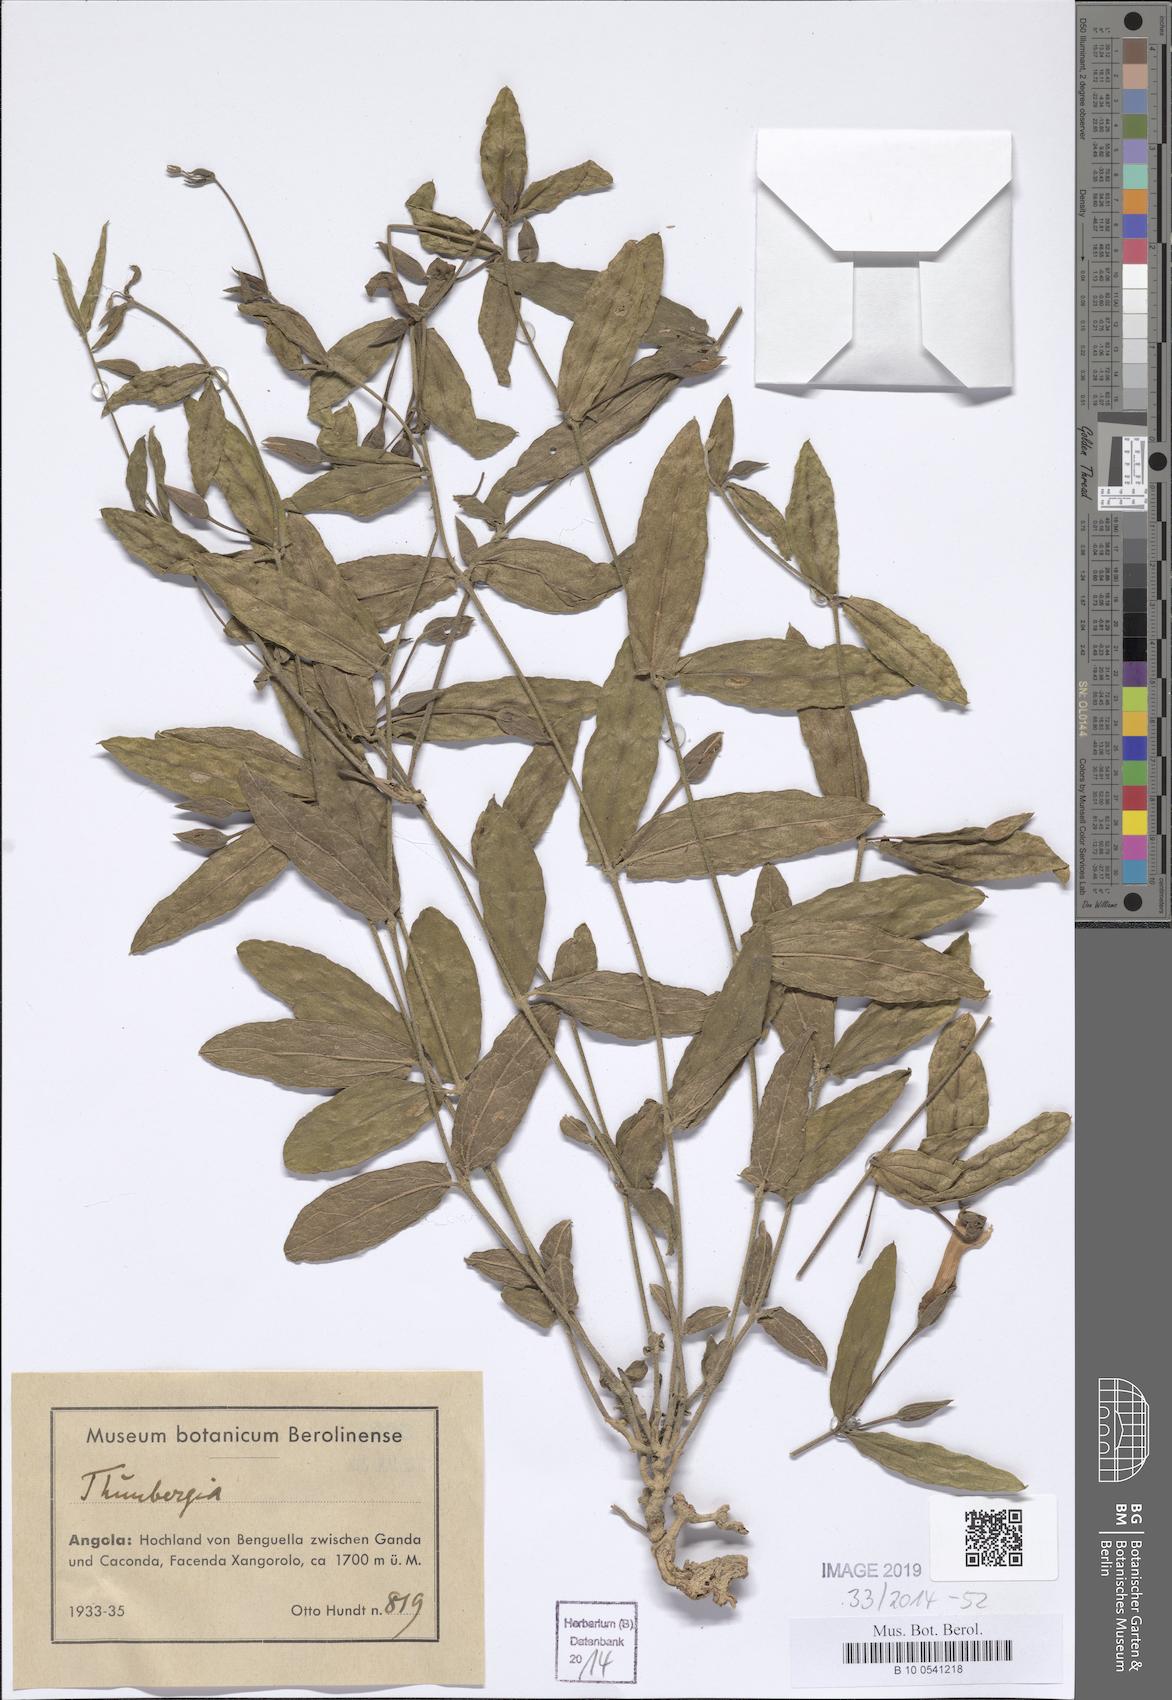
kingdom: Plantae
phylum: Tracheophyta
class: Magnoliopsida
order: Lamiales
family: Acanthaceae
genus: Thunbergia
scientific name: Thunbergia
